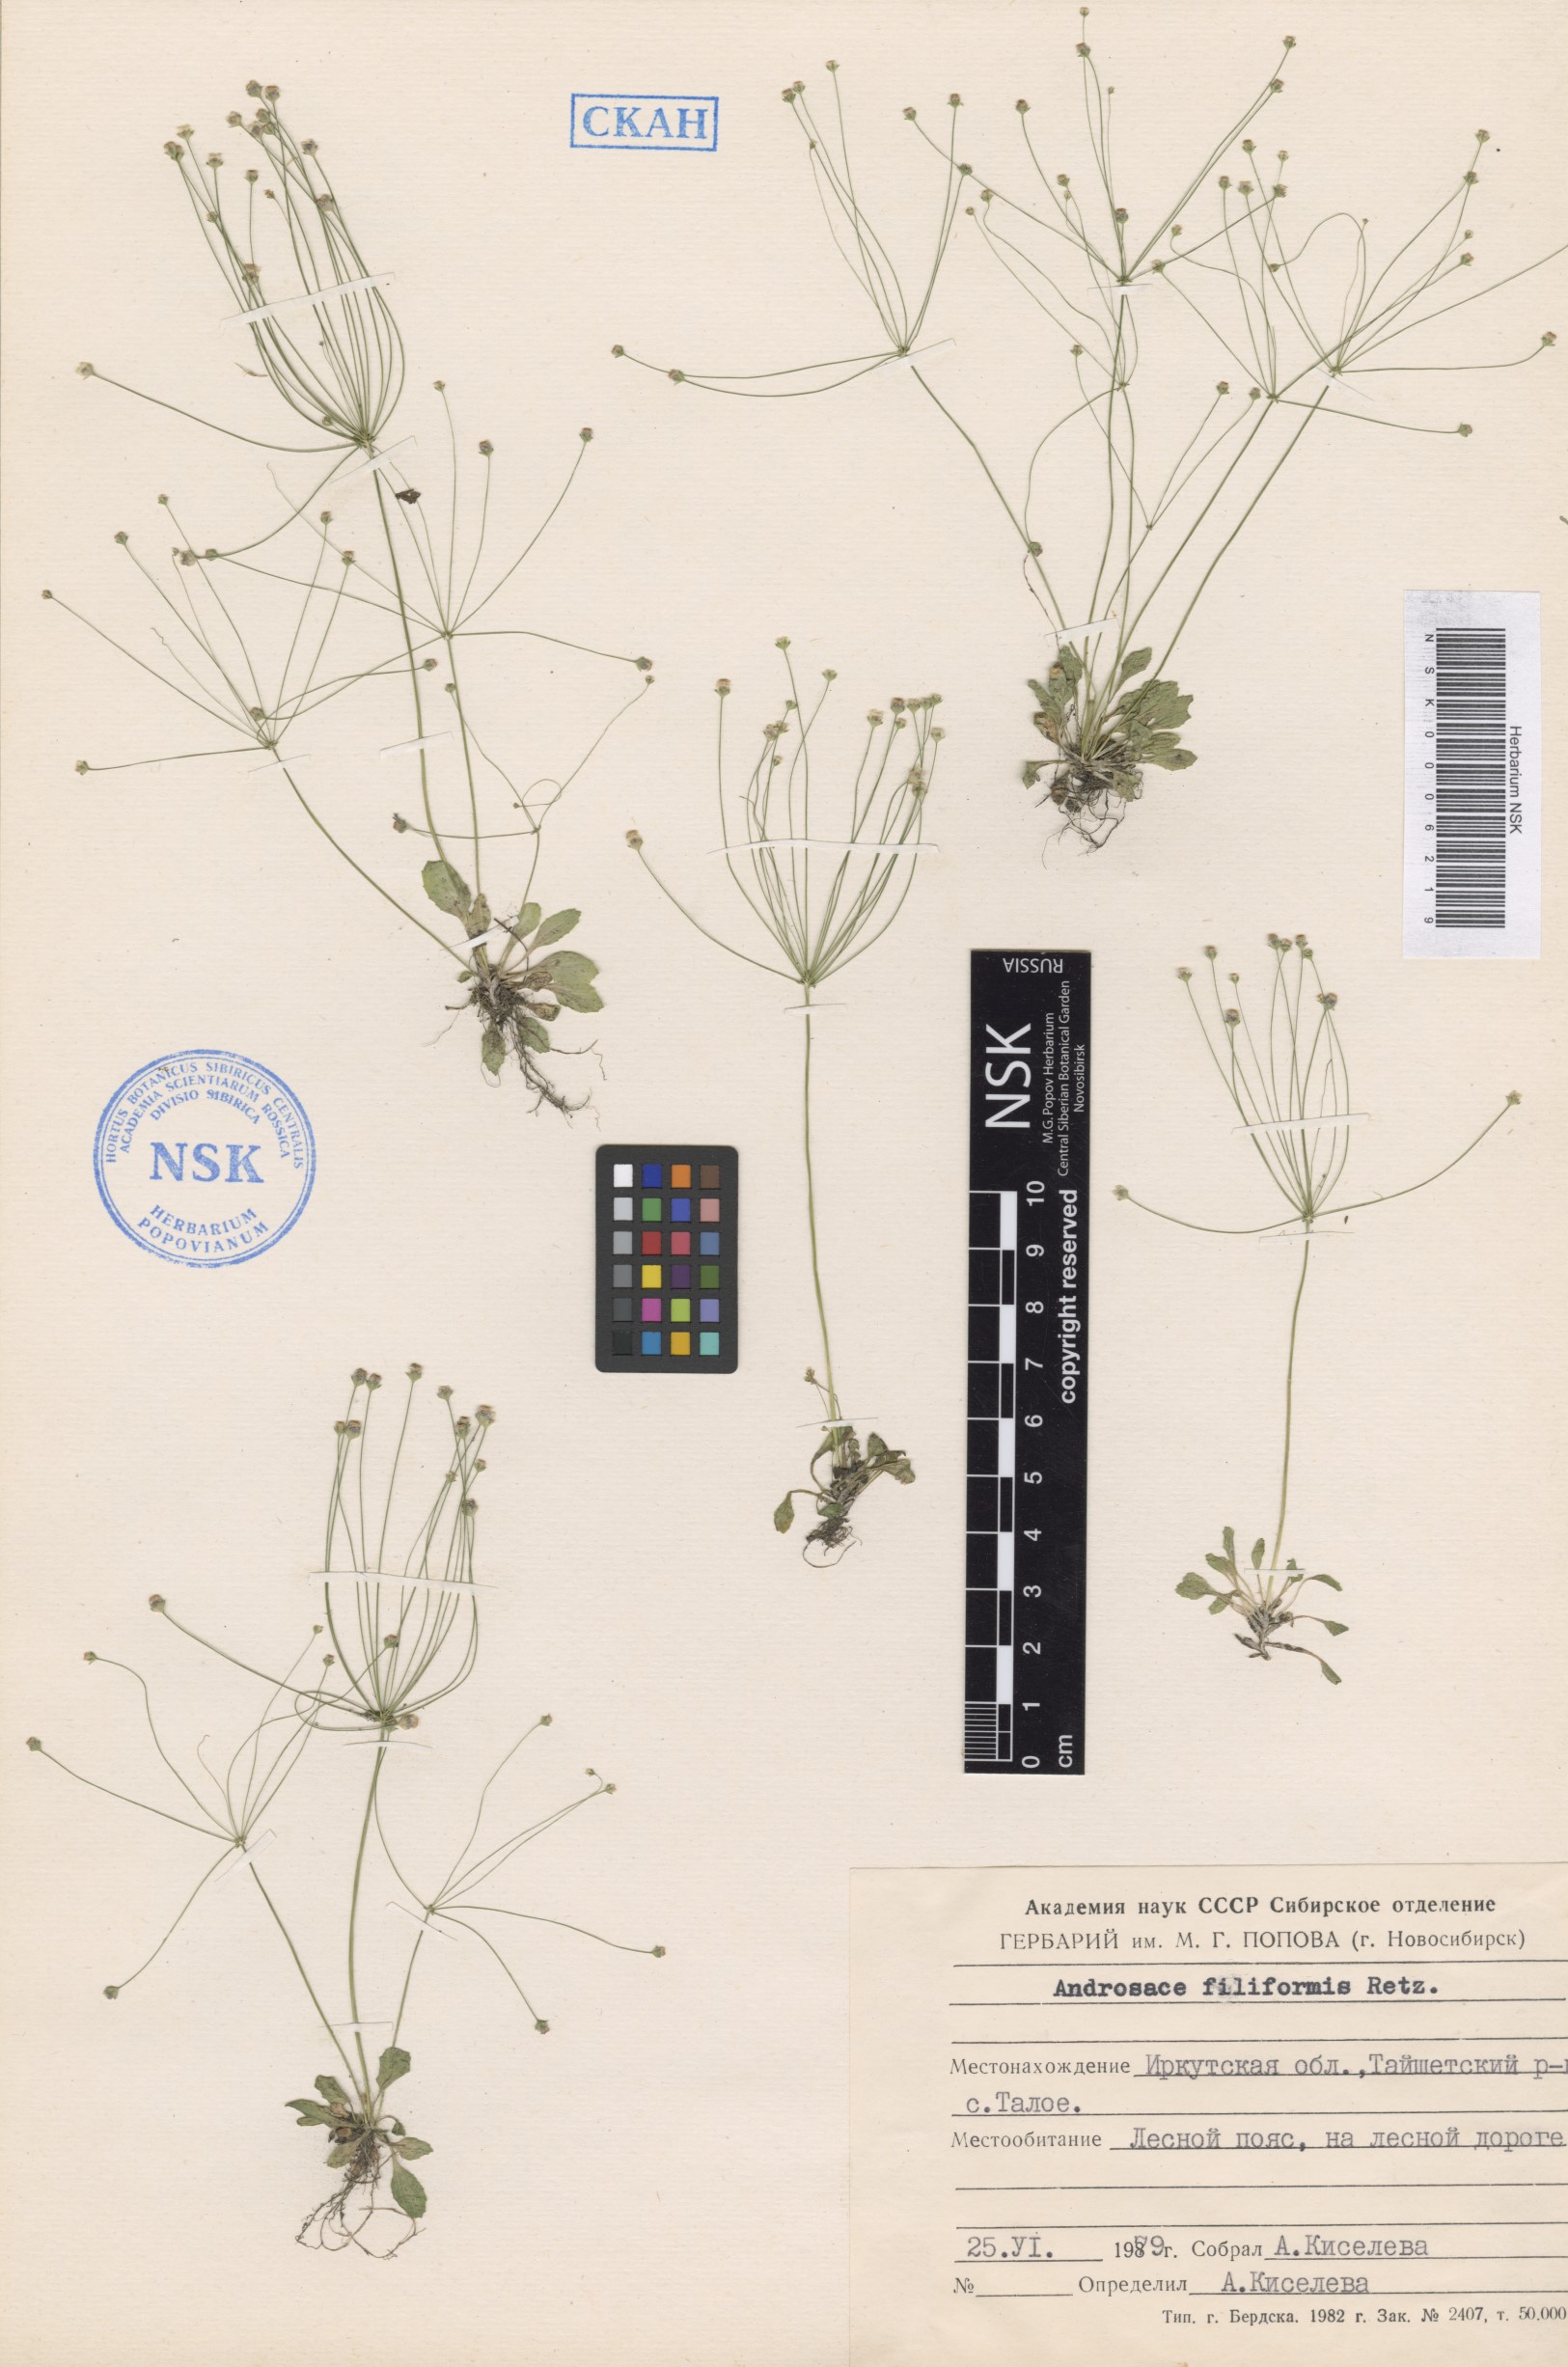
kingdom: Plantae
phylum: Tracheophyta
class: Magnoliopsida
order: Ericales
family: Primulaceae
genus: Androsace
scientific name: Androsace filiformis
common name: Filiform rock jasmine
